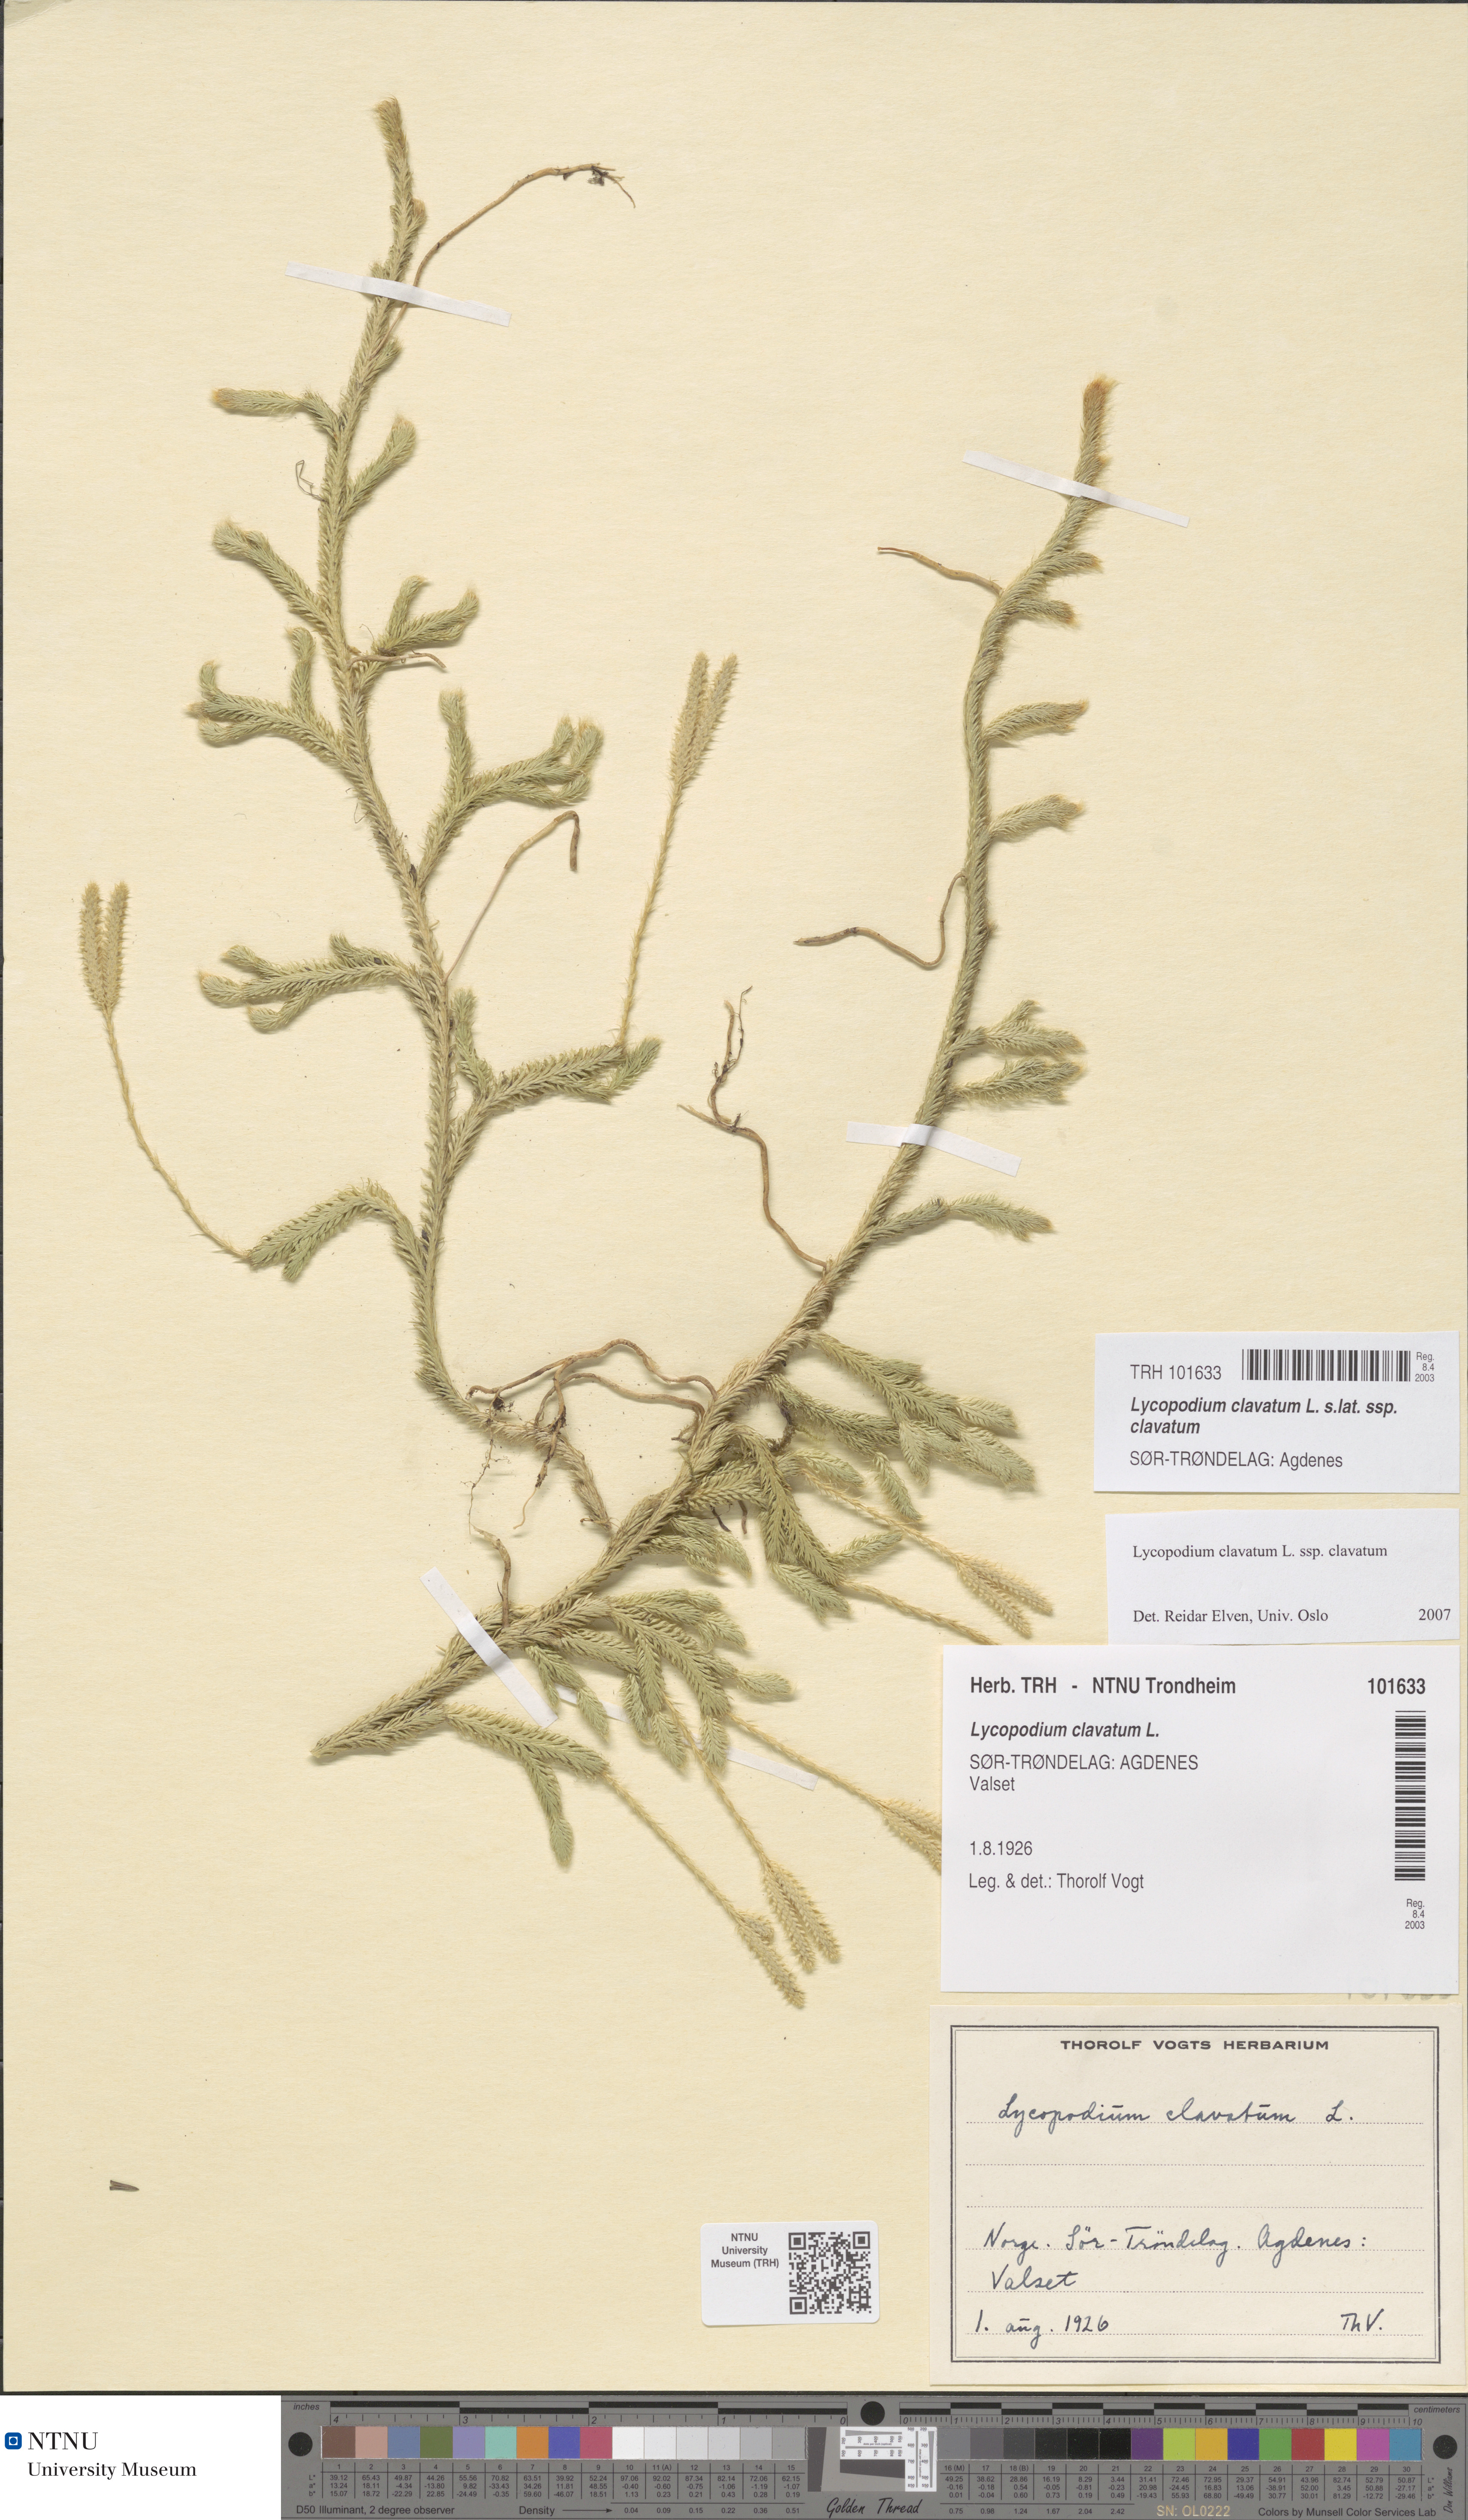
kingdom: Plantae
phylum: Tracheophyta
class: Lycopodiopsida
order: Lycopodiales
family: Lycopodiaceae
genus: Lycopodium
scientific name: Lycopodium clavatum
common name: Stag's-horn clubmoss
